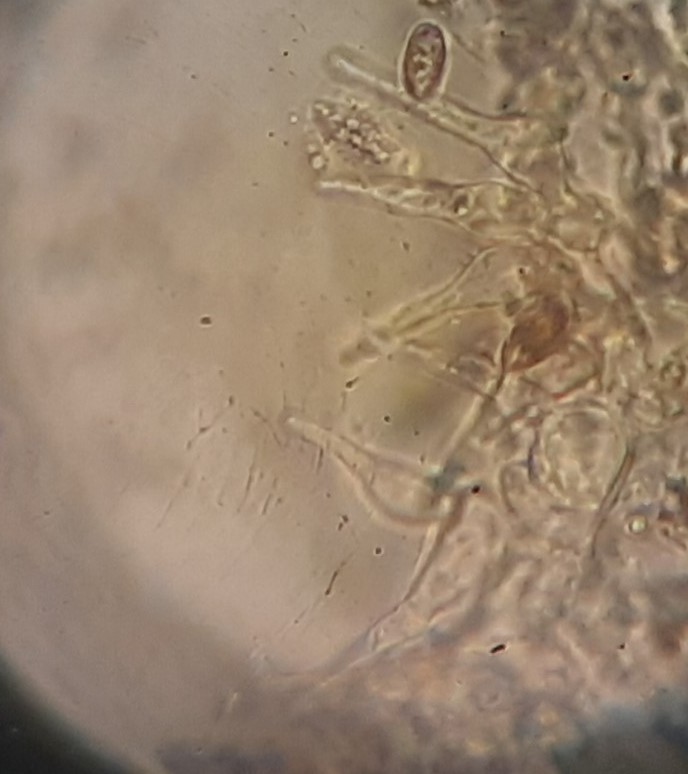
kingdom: Fungi
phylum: Basidiomycota
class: Agaricomycetes
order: Agaricales
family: Hymenogastraceae
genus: Naucoria
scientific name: Naucoria
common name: knaphat
